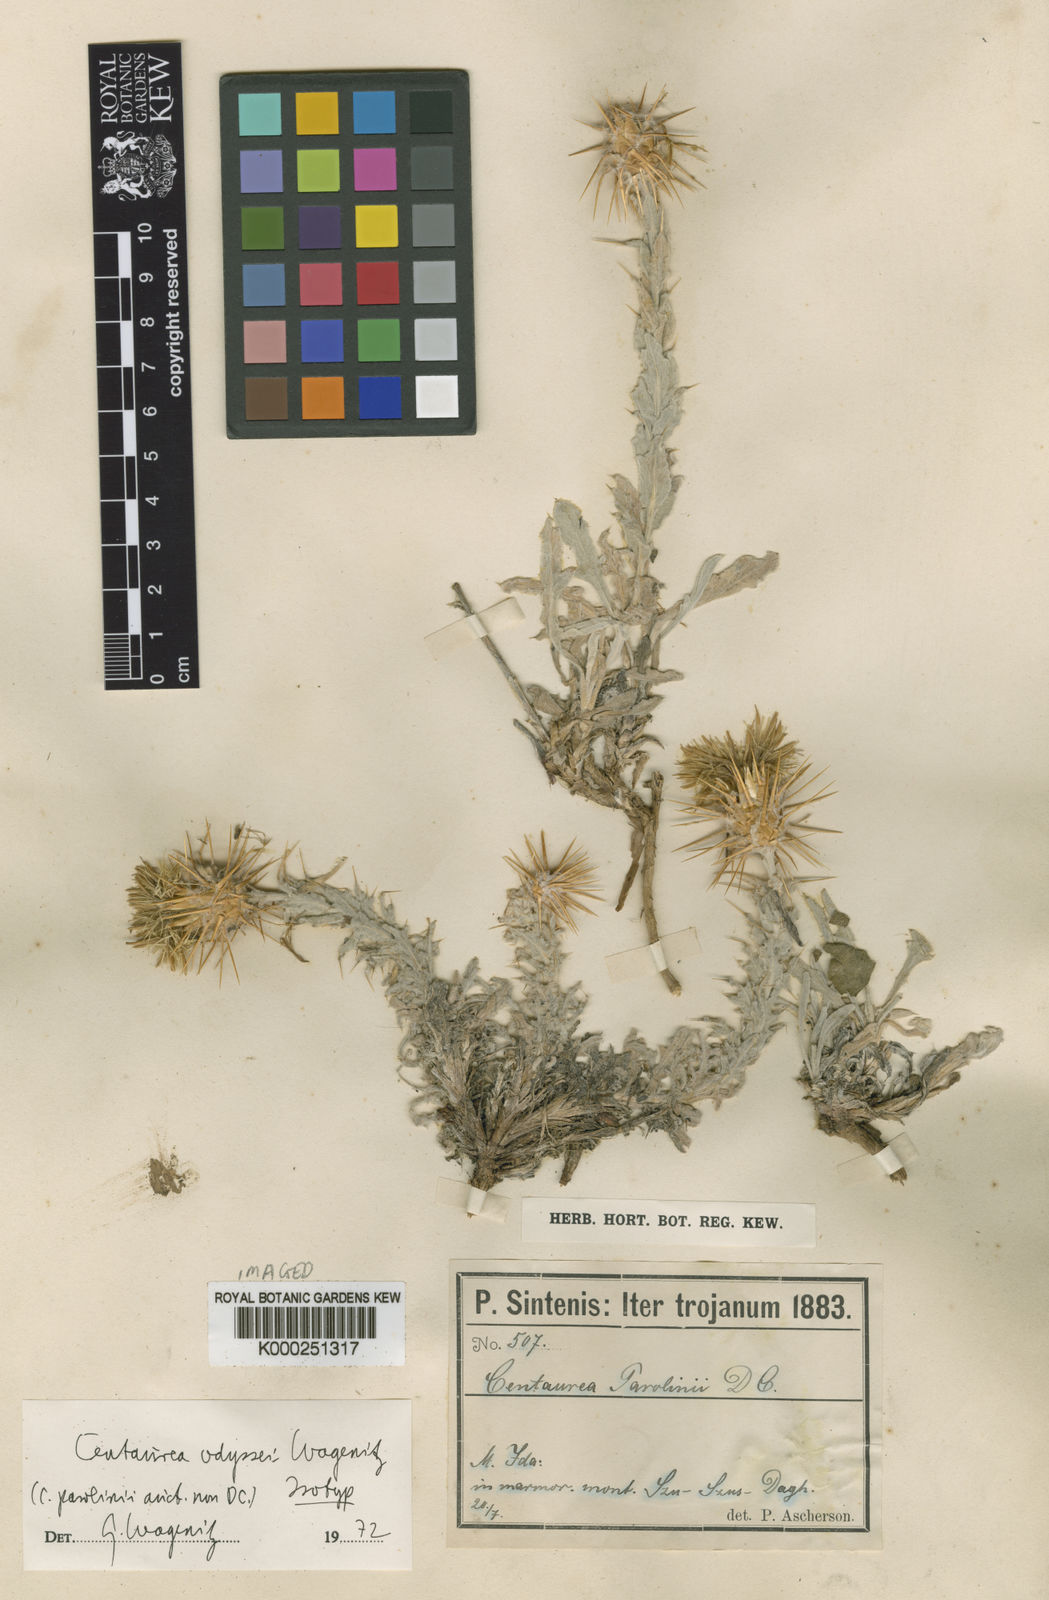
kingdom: Plantae
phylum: Tracheophyta
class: Magnoliopsida
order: Asterales
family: Asteraceae
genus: Centaurea
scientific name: Centaurea odyssei
